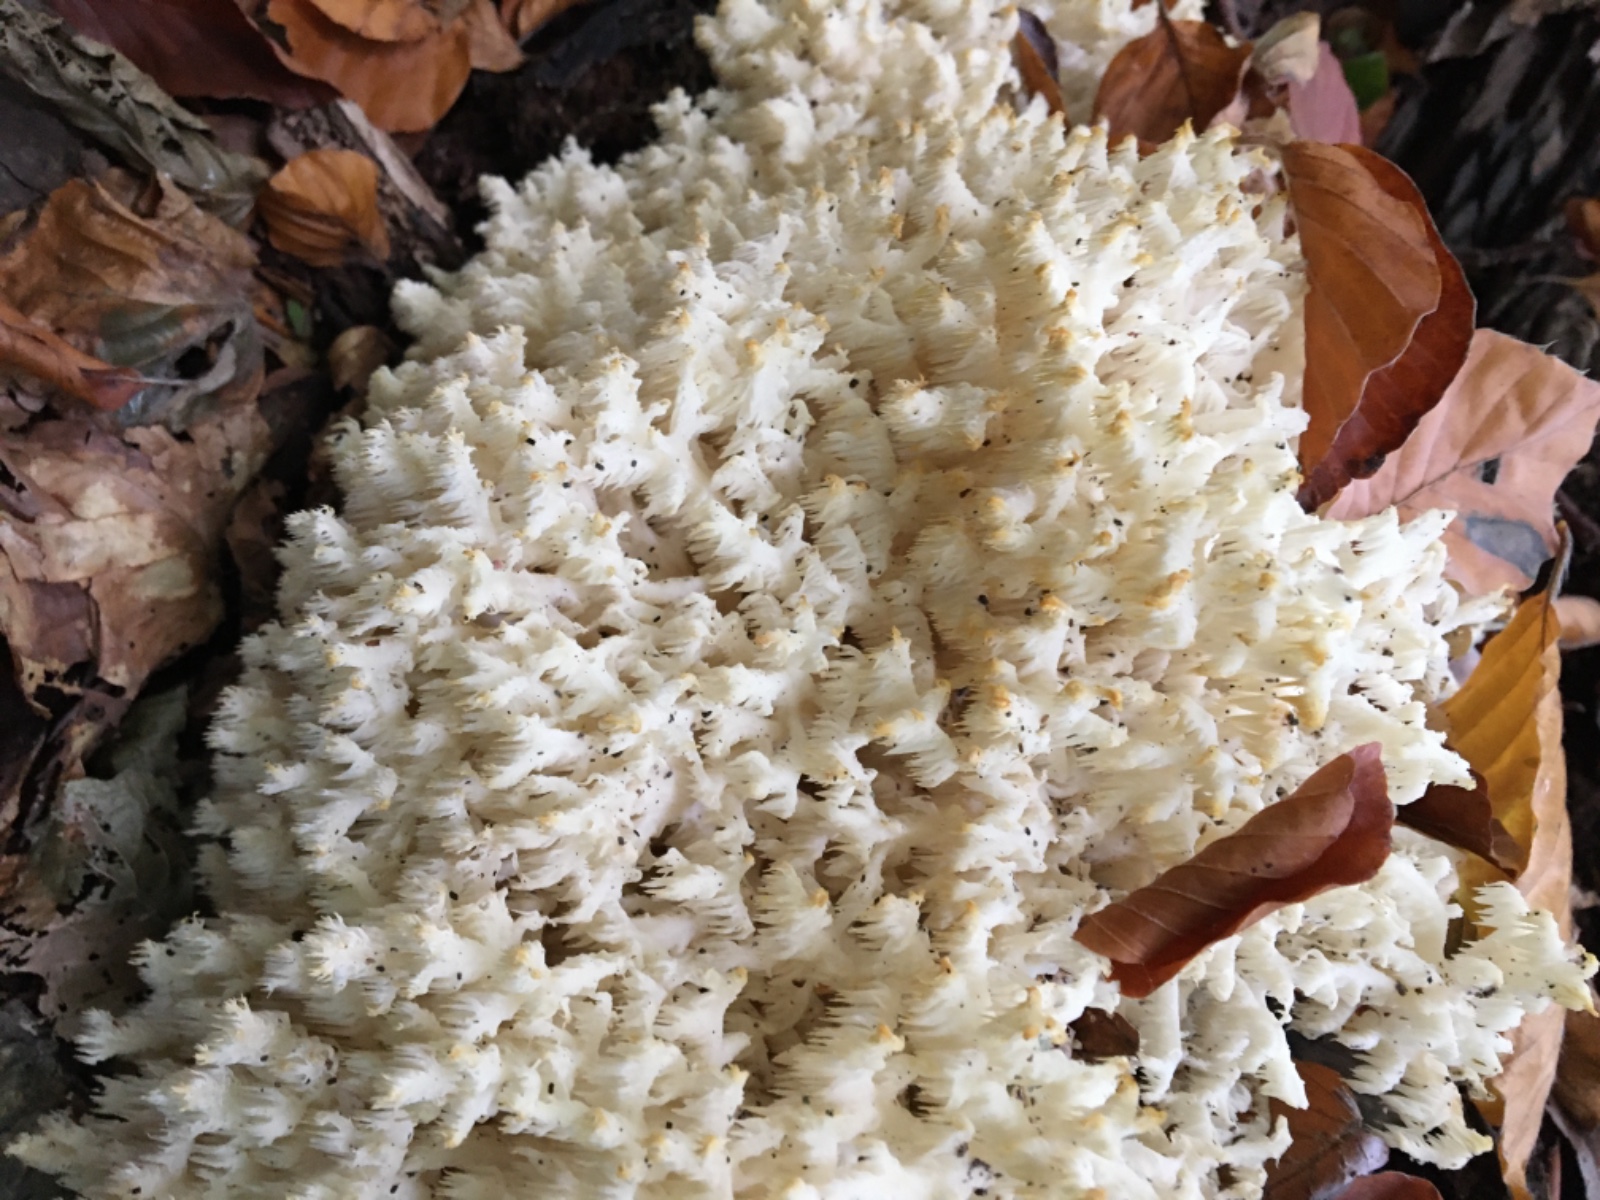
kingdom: Fungi
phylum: Basidiomycota
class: Agaricomycetes
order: Russulales
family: Hericiaceae
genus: Hericium
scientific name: Hericium coralloides
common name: koralpigsvamp
